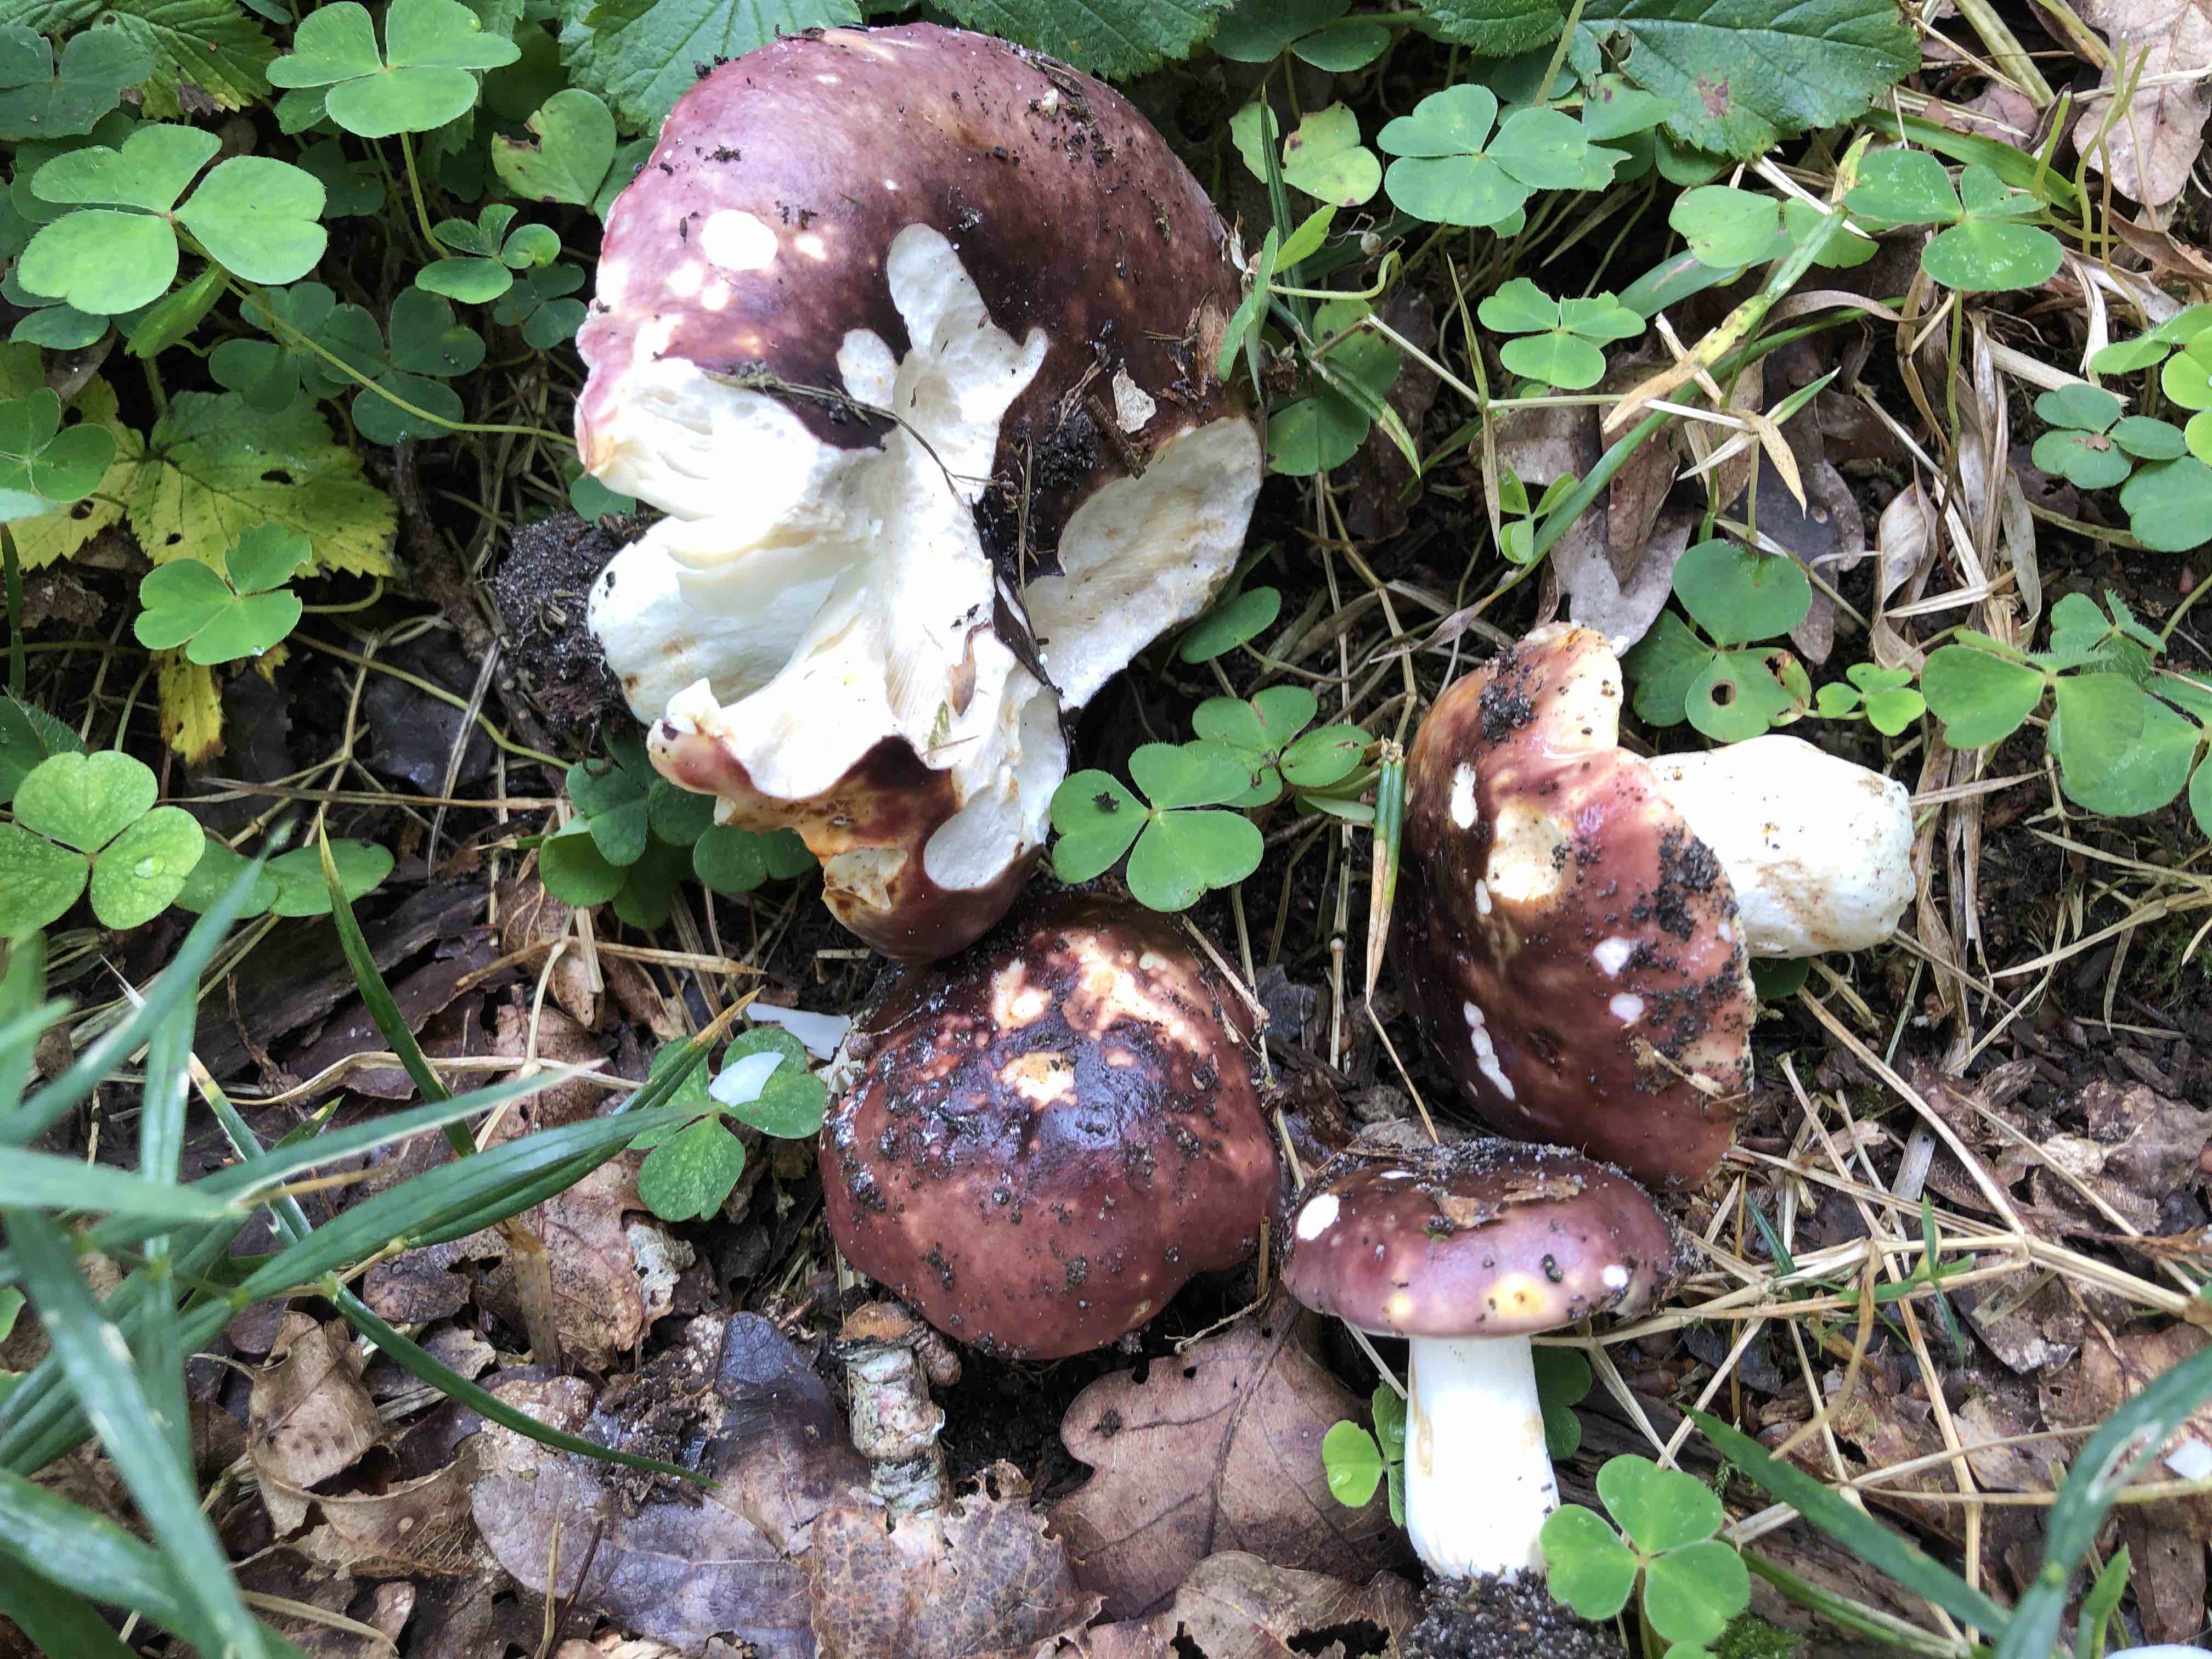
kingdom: Fungi
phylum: Basidiomycota
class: Agaricomycetes
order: Russulales
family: Russulaceae
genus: Russula
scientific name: Russula atropurpurea
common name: purpurbroget skørhat
